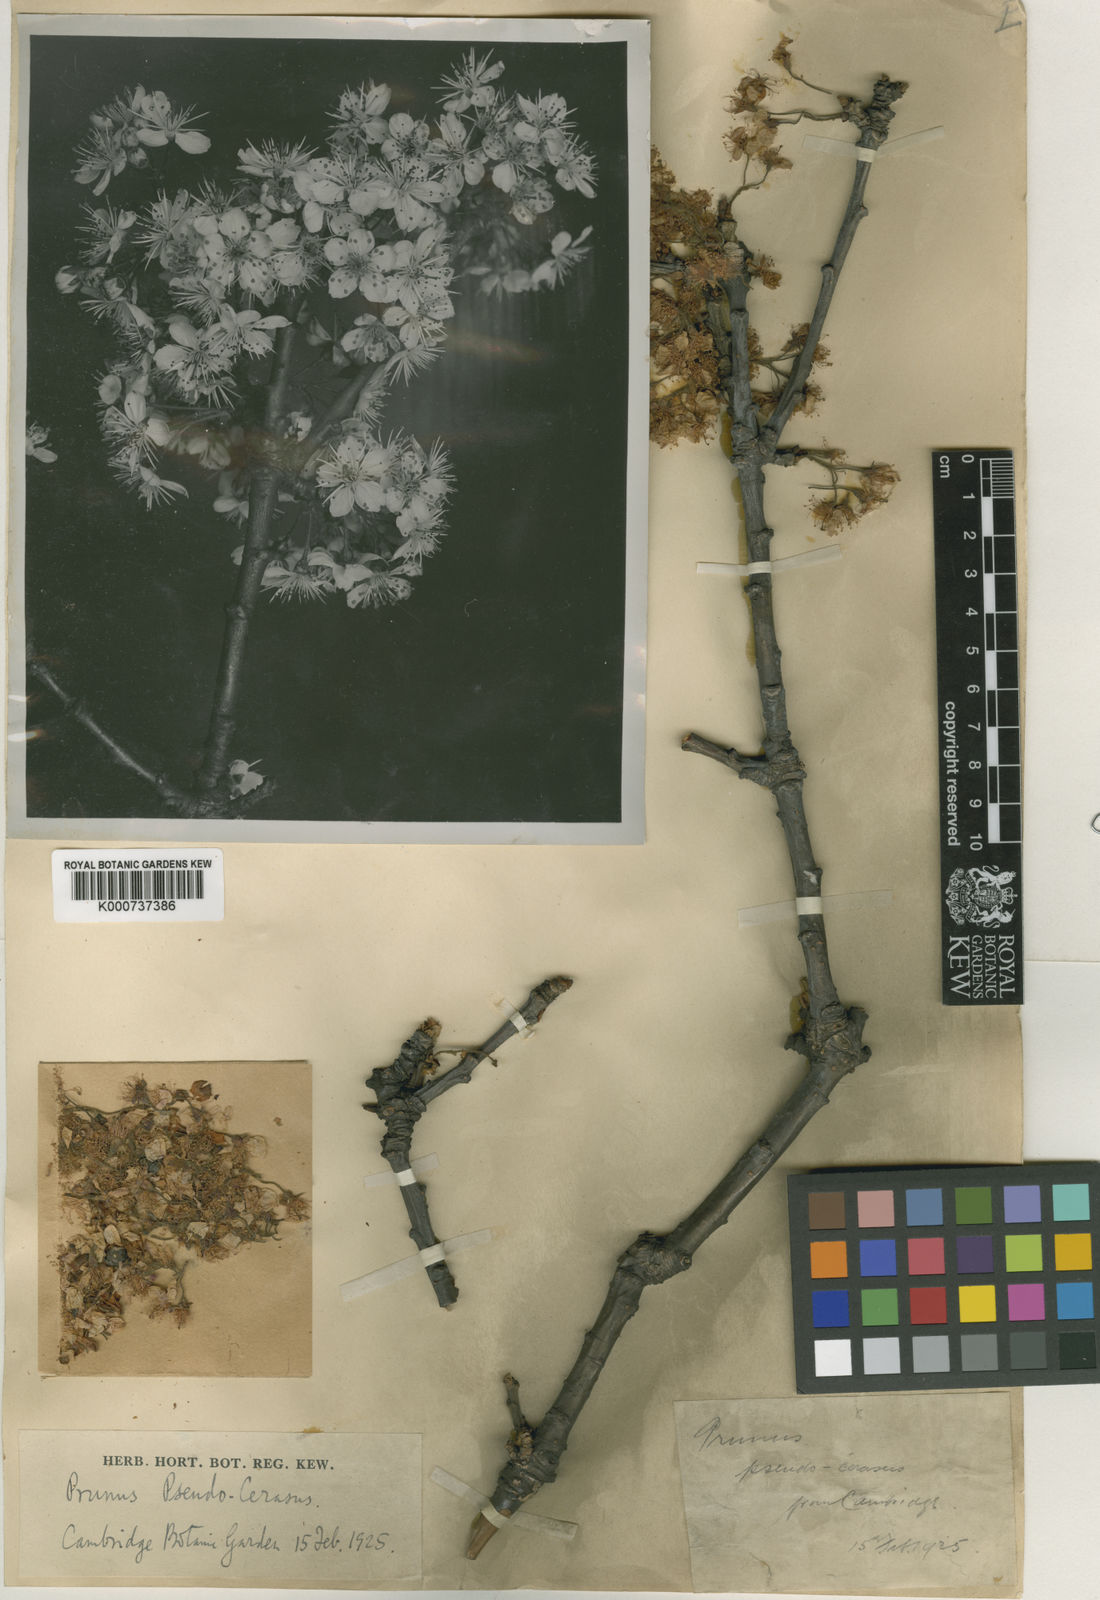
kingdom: Plantae
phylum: Tracheophyta
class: Magnoliopsida
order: Rosales
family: Rosaceae
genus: Prunus
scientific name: Prunus pseudocerasus
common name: Ying tao cherry
